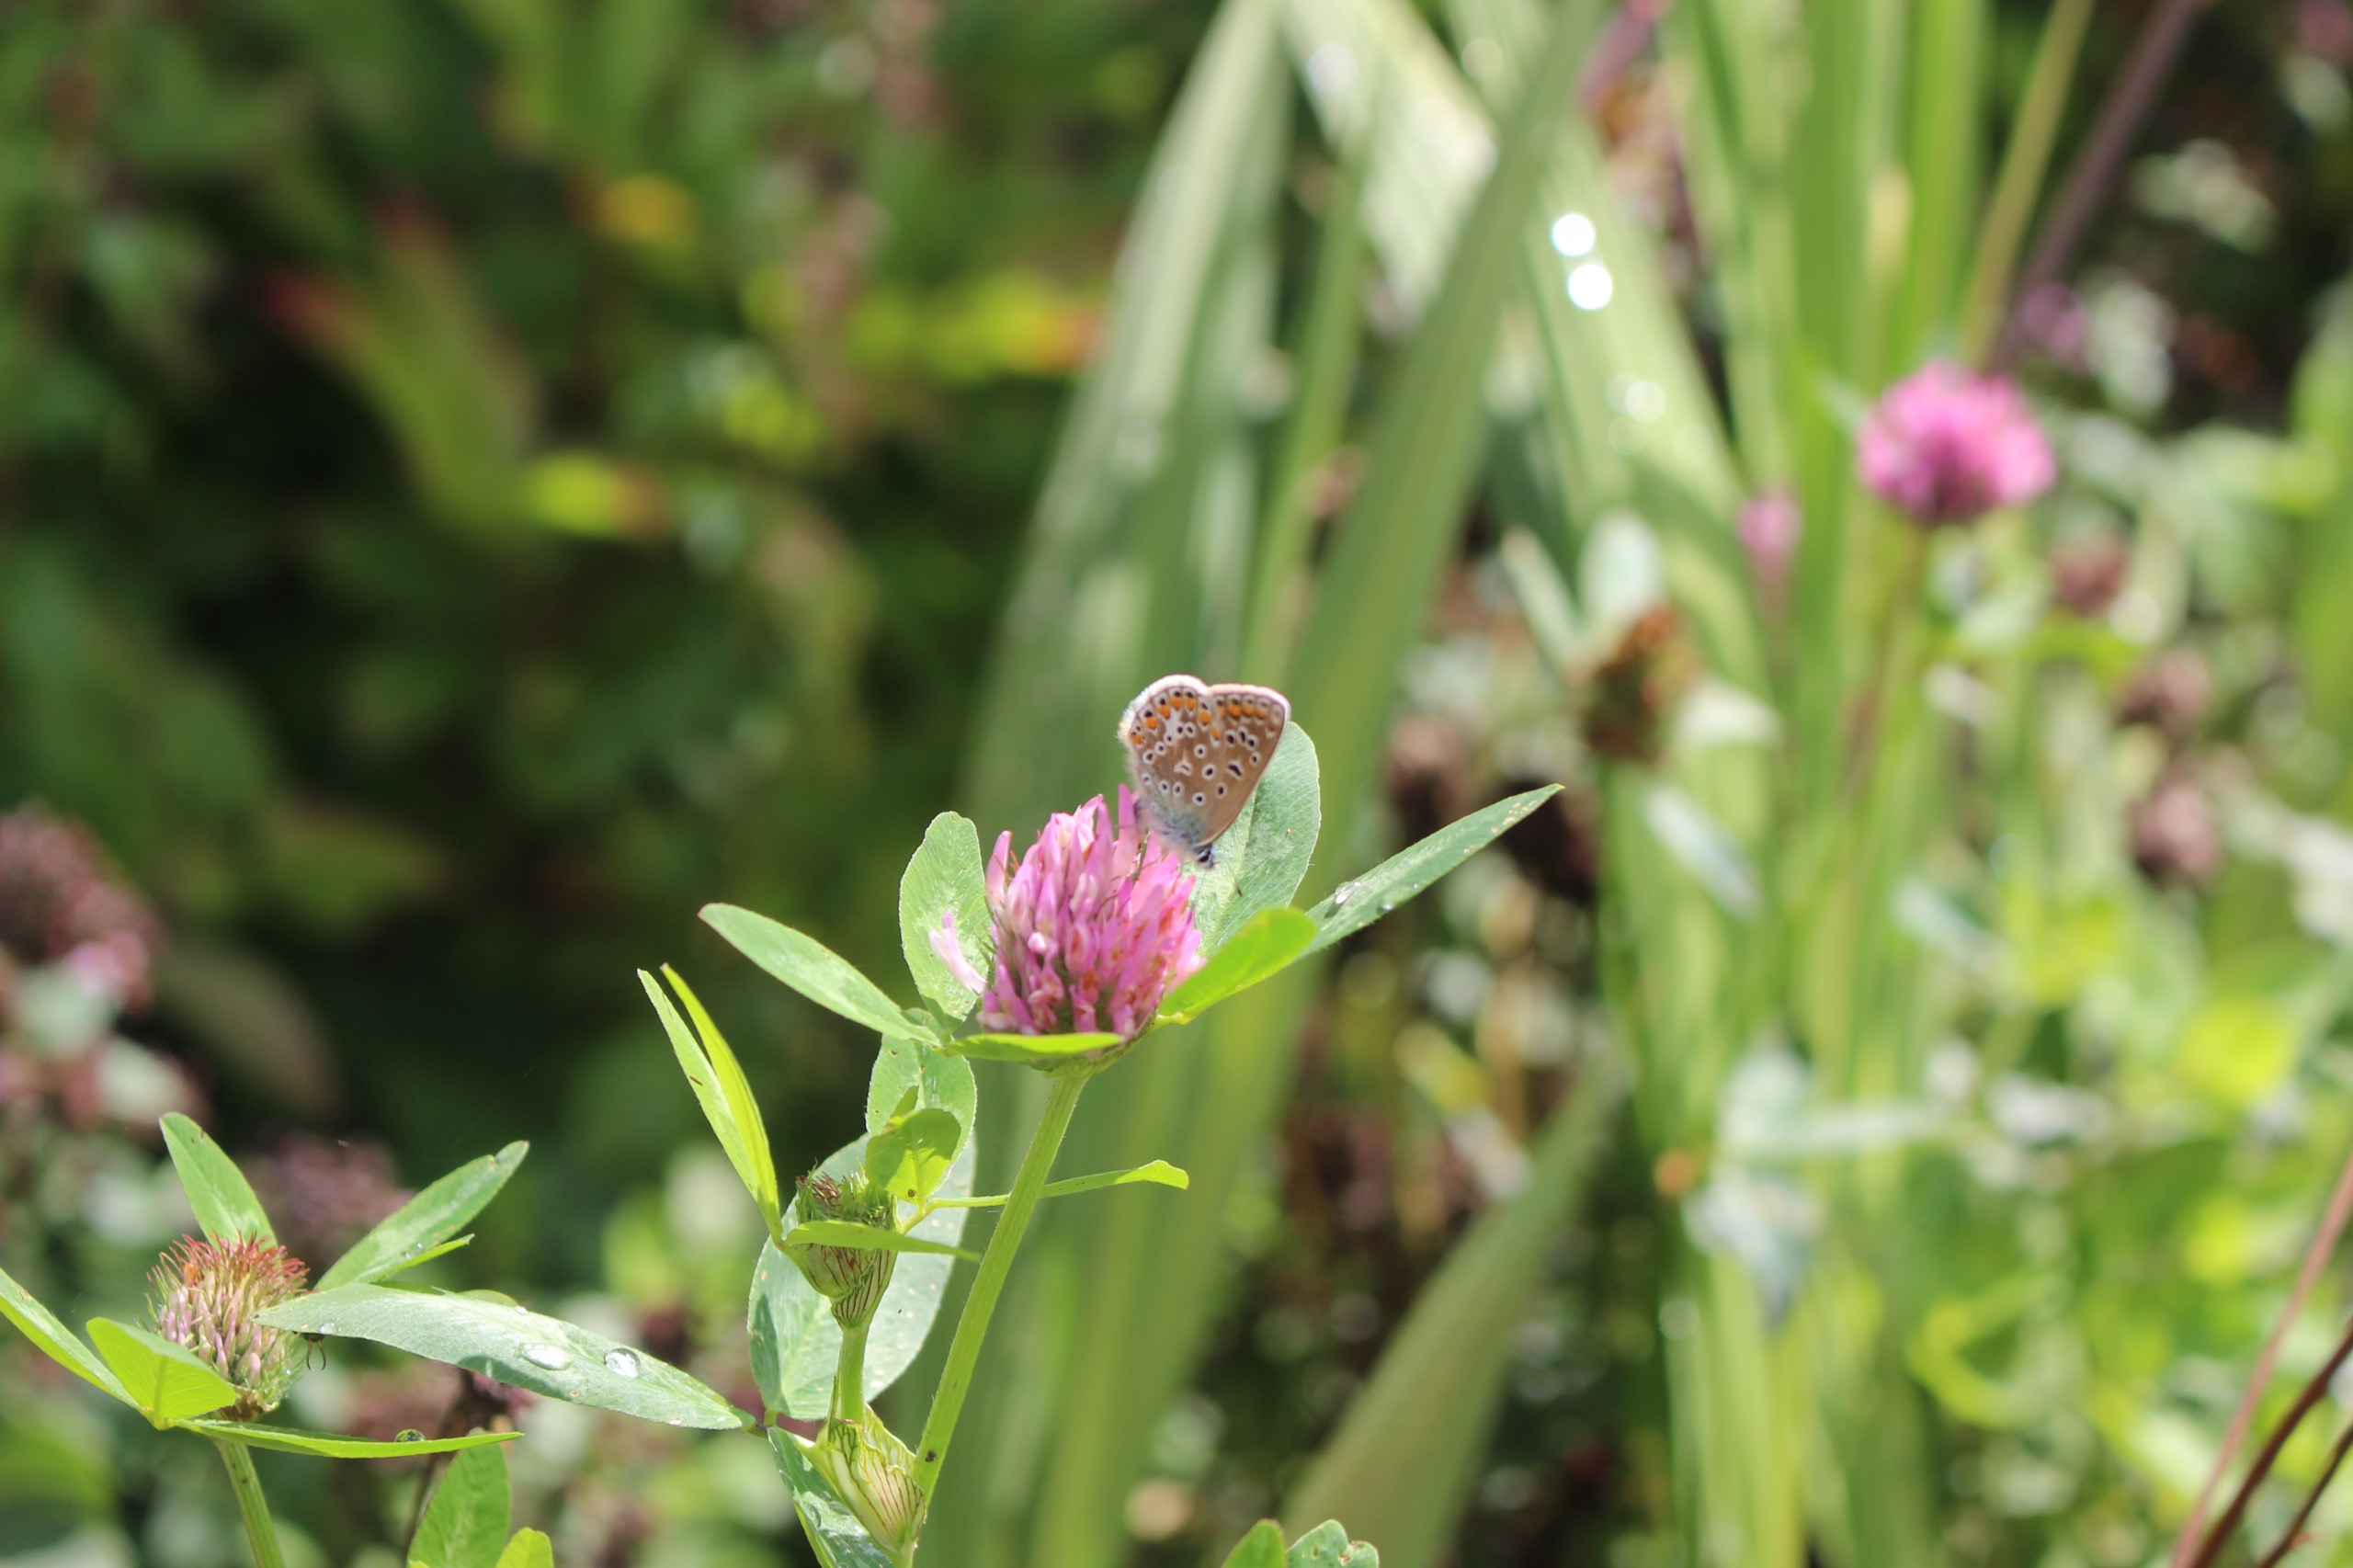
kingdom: Animalia
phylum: Arthropoda
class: Insecta
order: Lepidoptera
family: Lycaenidae
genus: Polyommatus
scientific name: Polyommatus icarus
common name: Almindelig blåfugl
